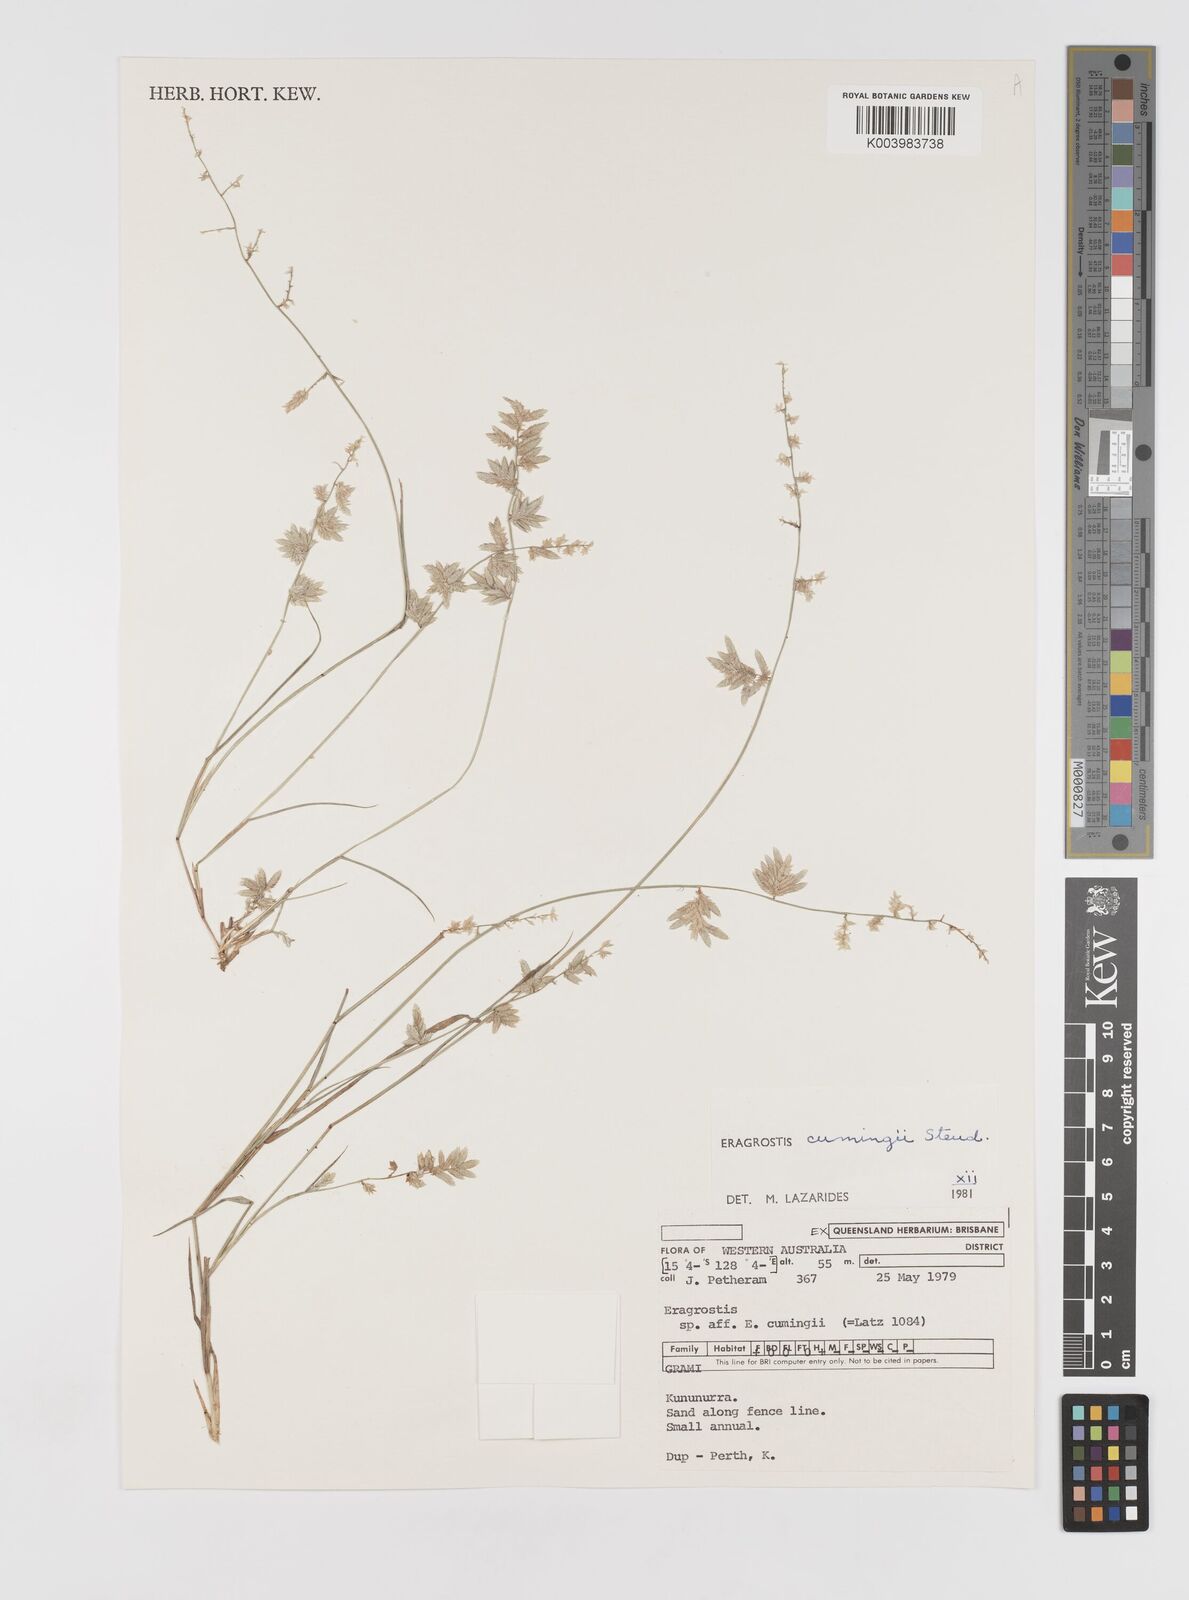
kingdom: Plantae
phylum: Tracheophyta
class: Liliopsida
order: Poales
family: Poaceae
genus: Eragrostis
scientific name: Eragrostis cumingii
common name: Cuming's lovegrass
